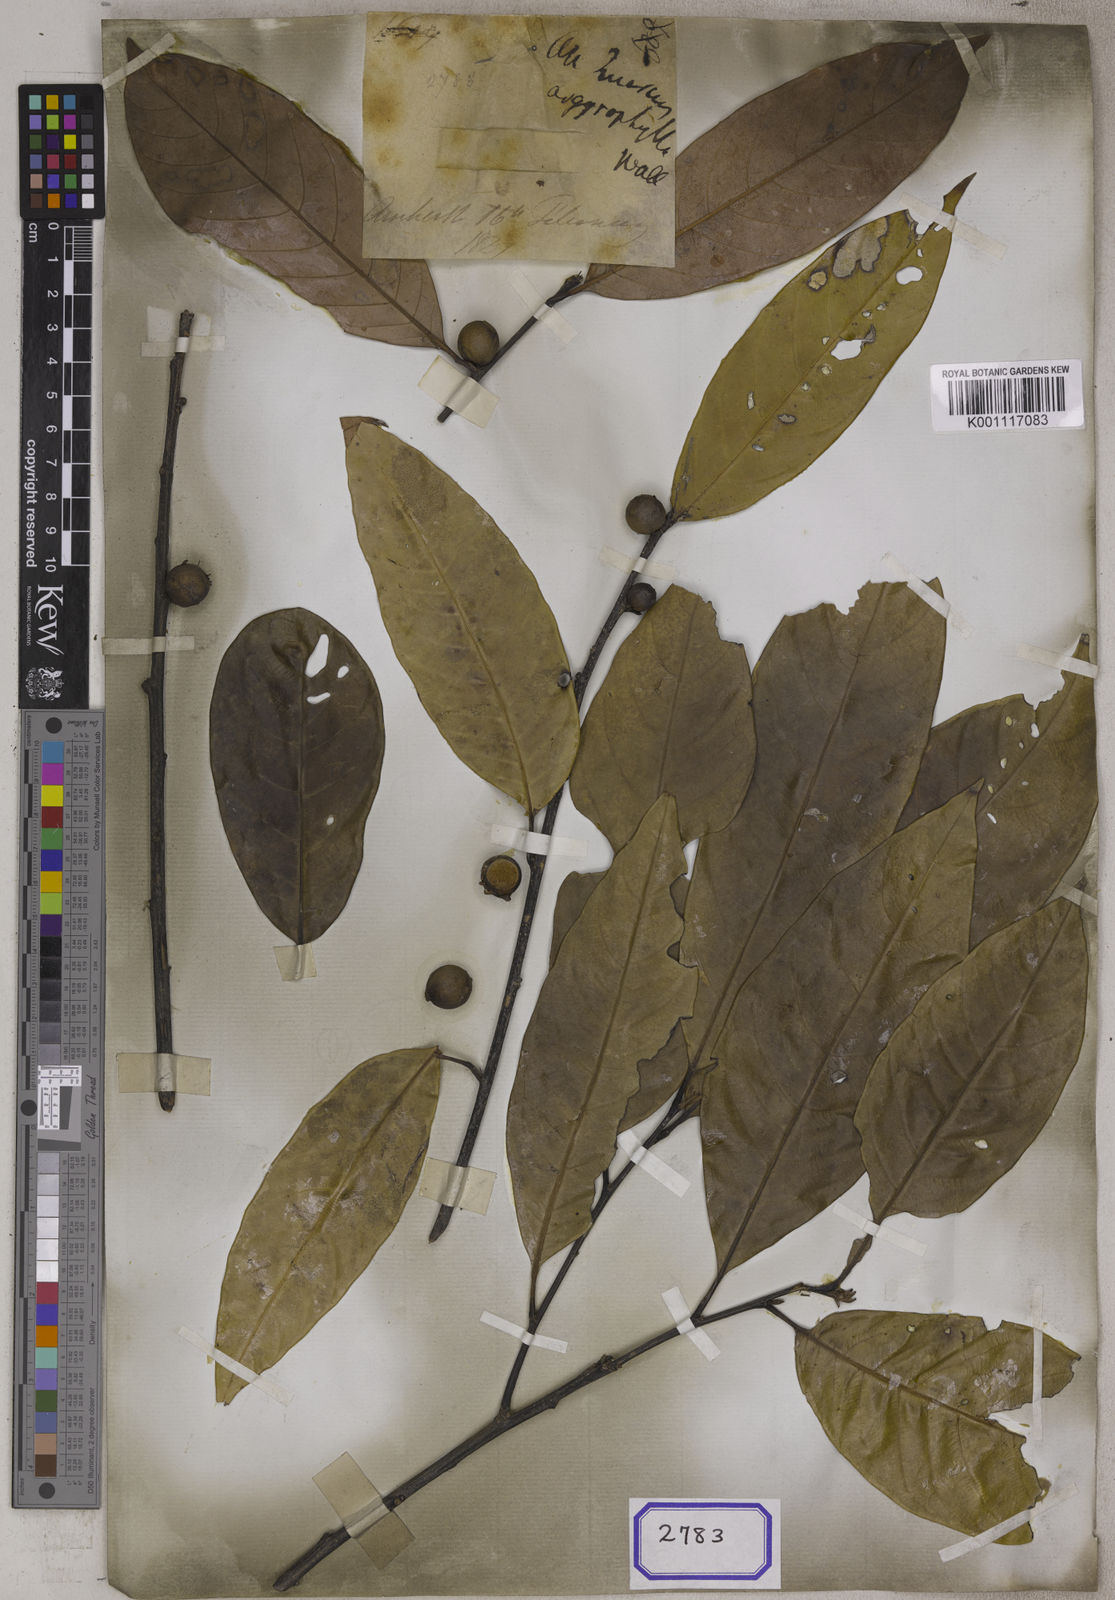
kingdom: Plantae
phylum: Tracheophyta
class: Magnoliopsida
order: Fagales
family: Fagaceae
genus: Quercus
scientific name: Quercus
